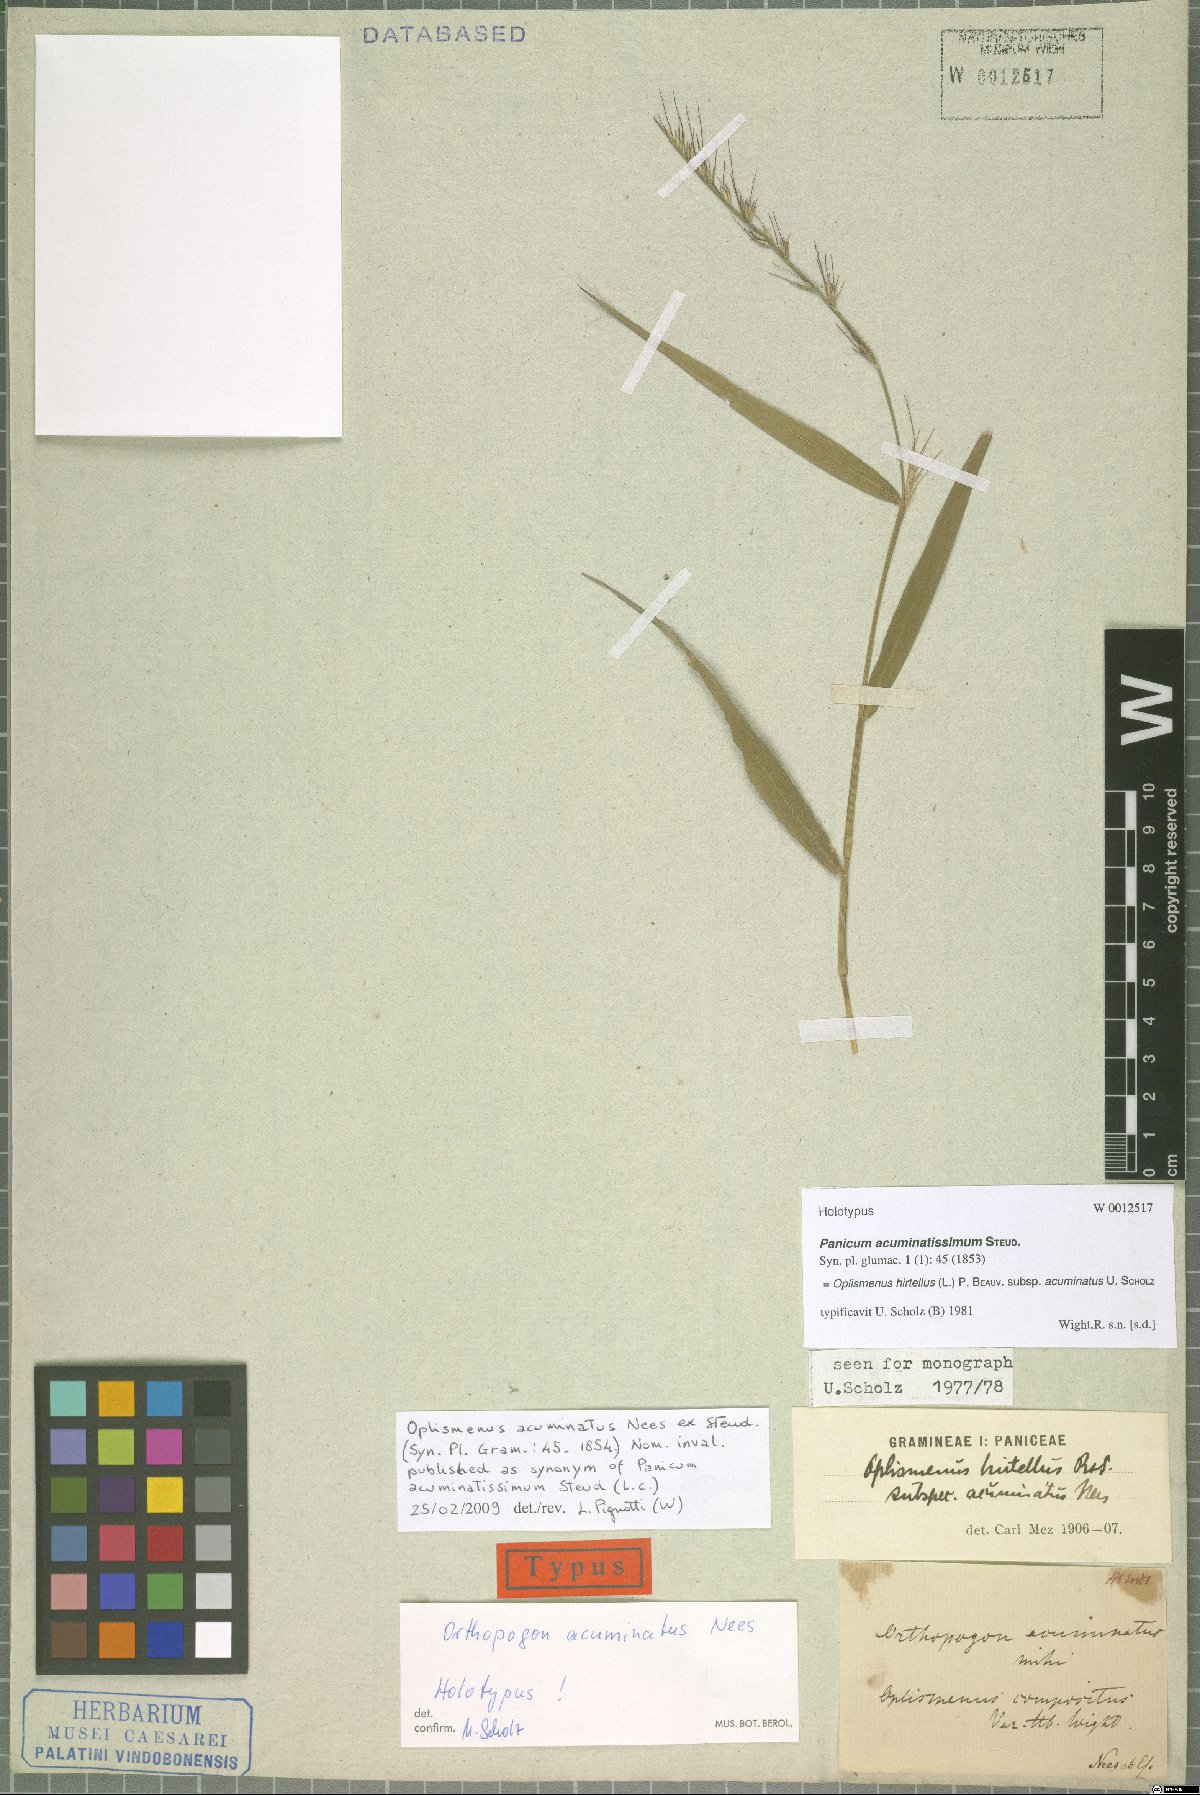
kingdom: Plantae
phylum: Tracheophyta
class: Liliopsida
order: Poales
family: Poaceae
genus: Oplismenus
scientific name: Oplismenus hirtellus
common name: Basketgrass
